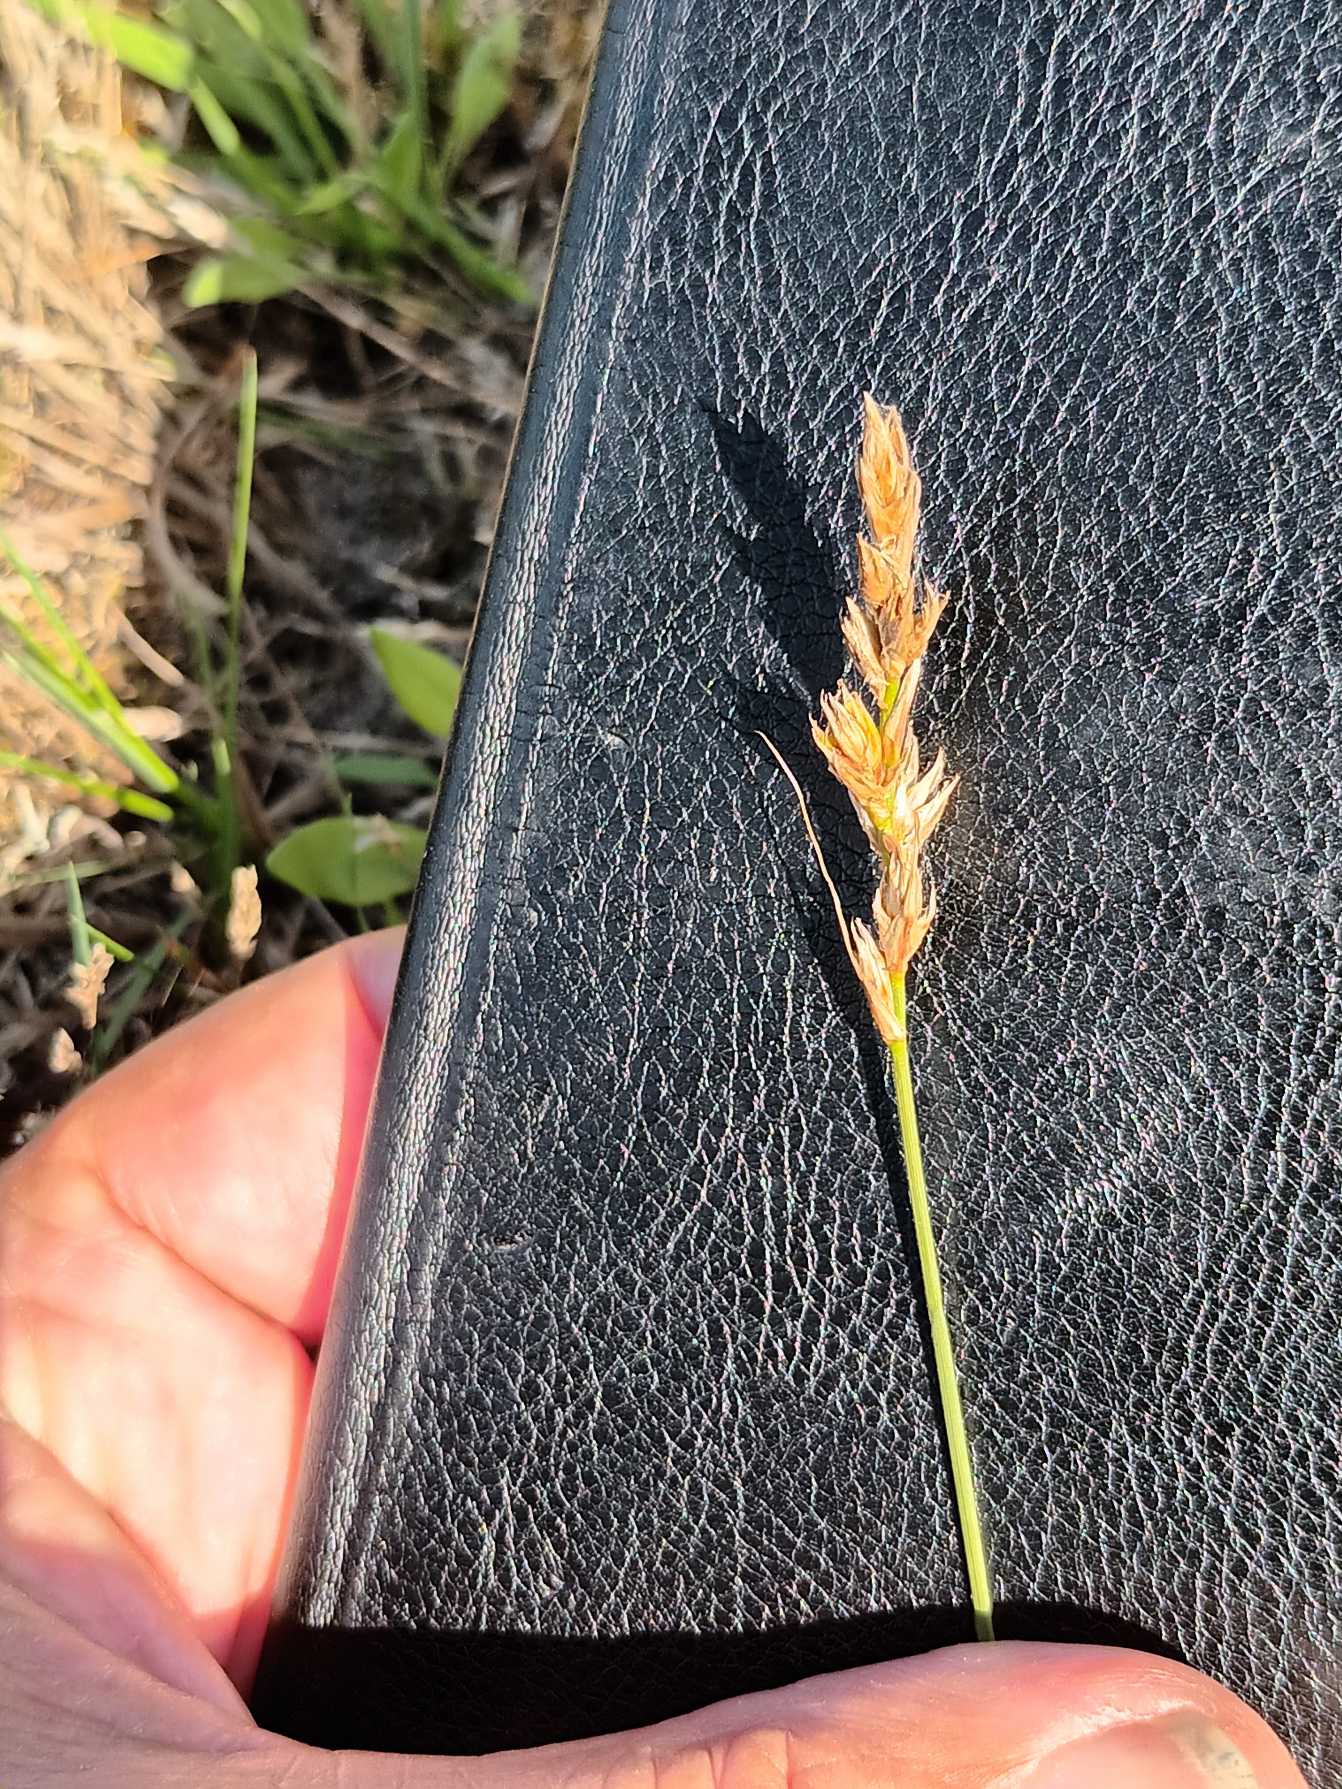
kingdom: Plantae
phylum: Tracheophyta
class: Liliopsida
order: Poales
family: Cyperaceae
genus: Carex
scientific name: Carex arenaria
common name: Sand-star
